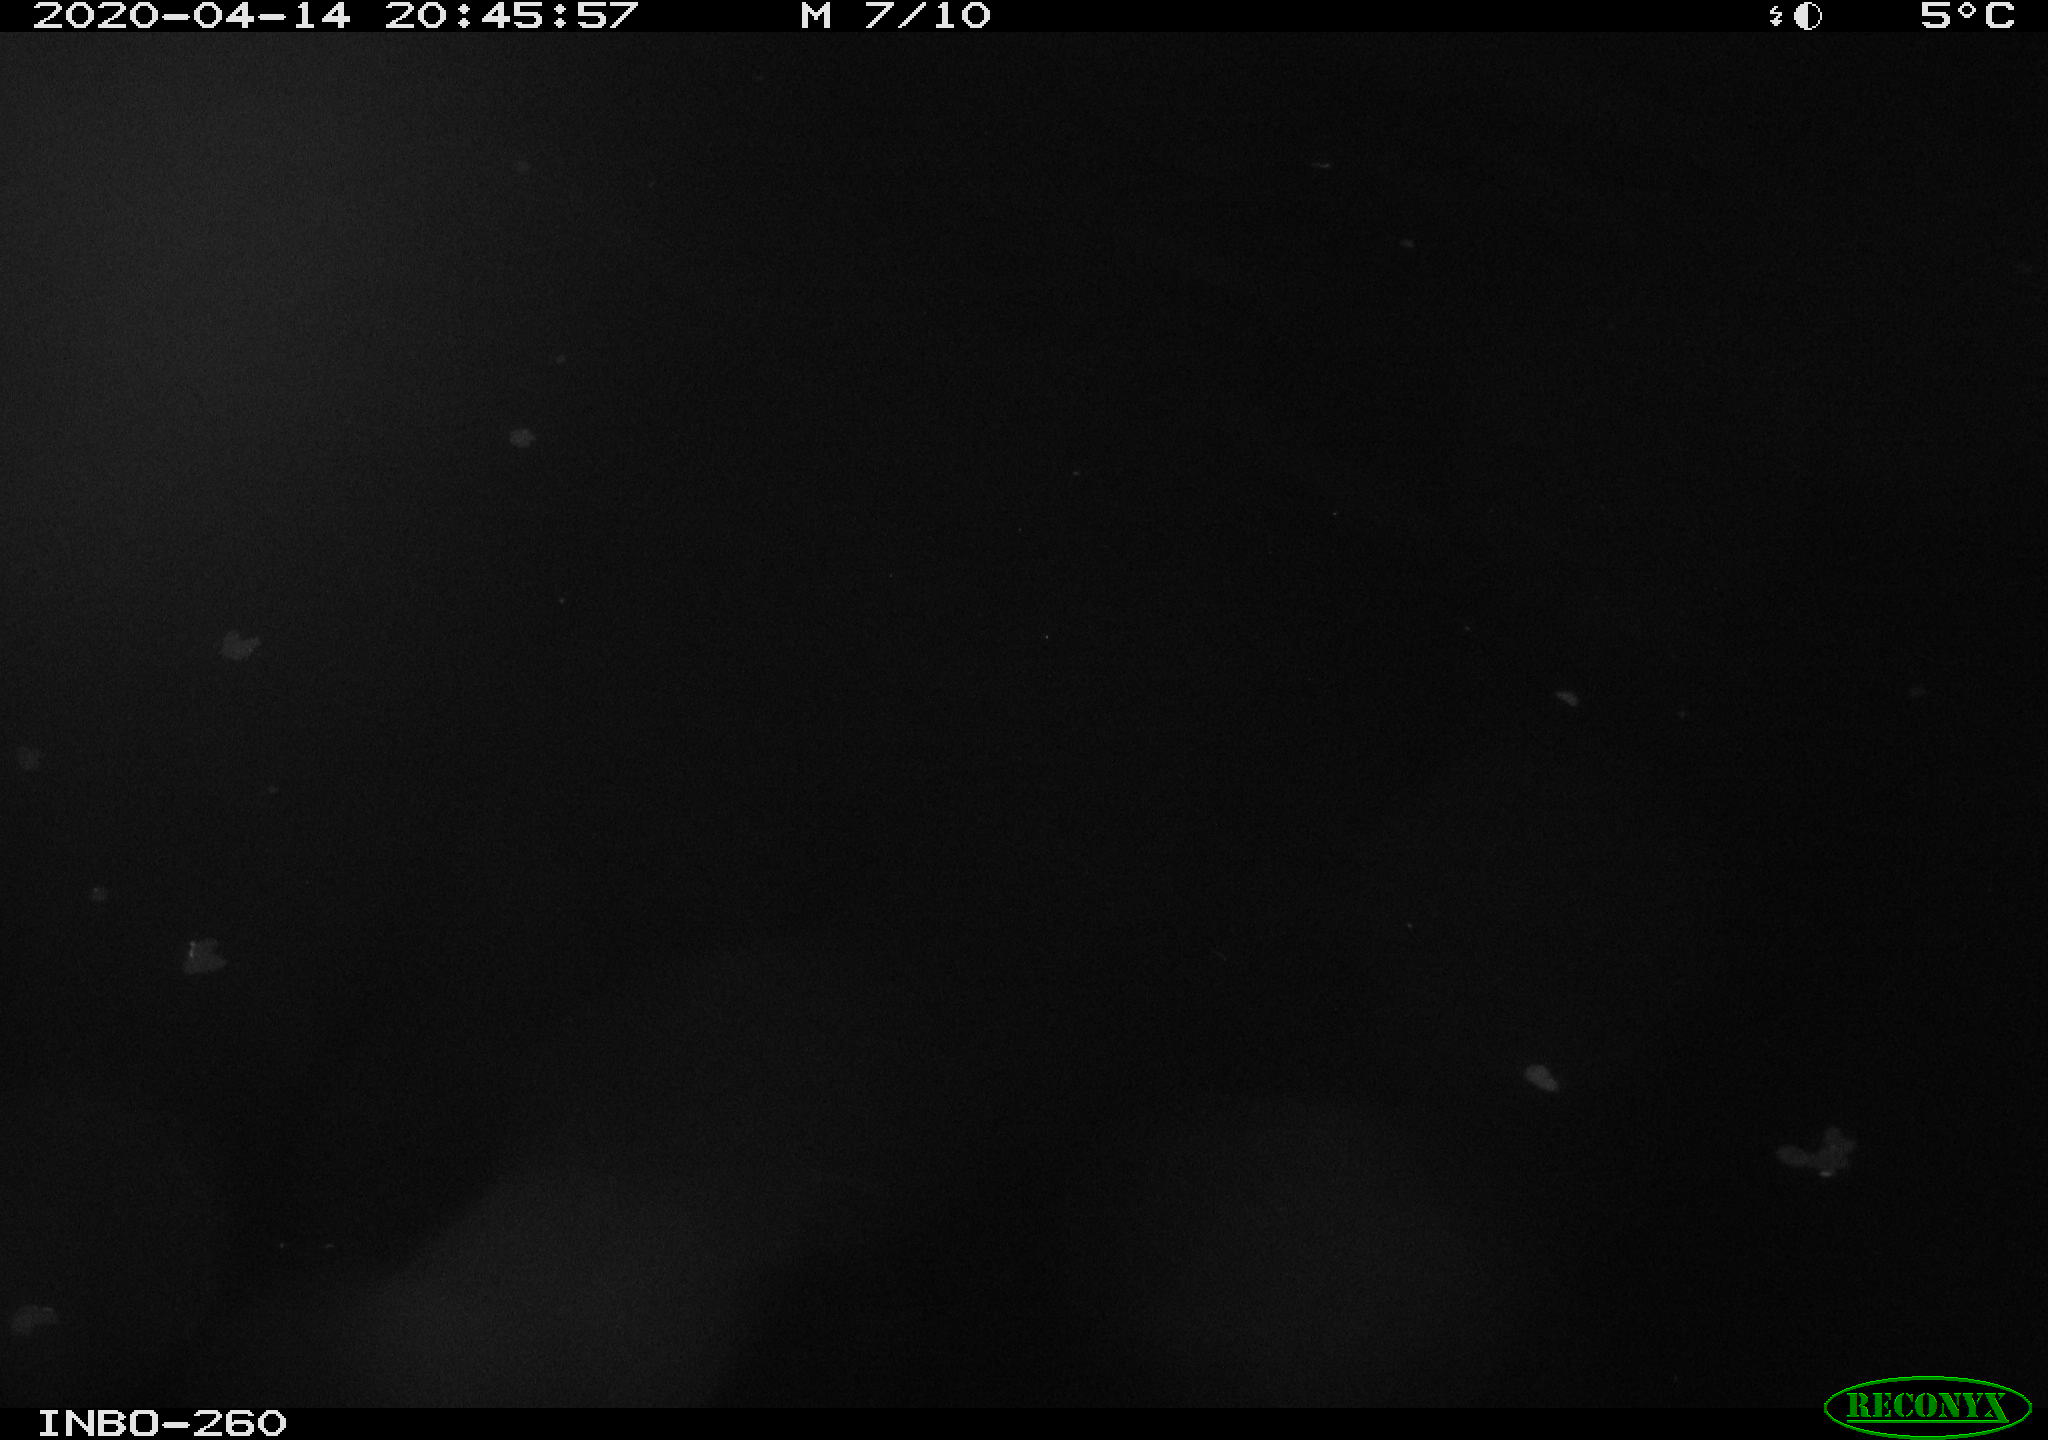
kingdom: Animalia
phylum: Chordata
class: Aves
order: Anseriformes
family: Anatidae
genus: Anas
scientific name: Anas platyrhynchos
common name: Mallard
